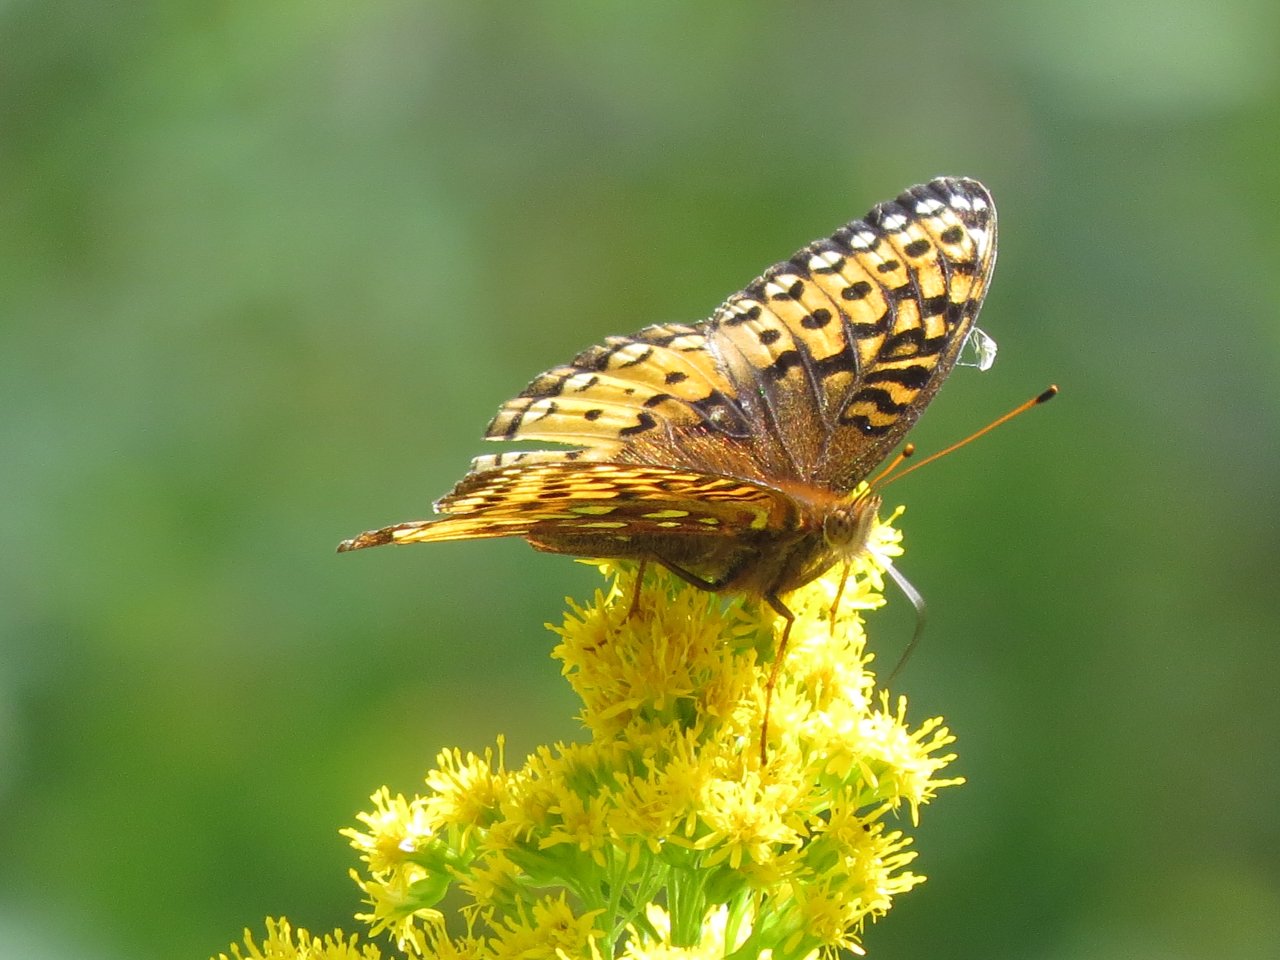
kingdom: Animalia
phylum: Arthropoda
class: Insecta
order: Lepidoptera
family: Nymphalidae
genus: Speyeria
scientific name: Speyeria cybele
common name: Great Spangled Fritillary
